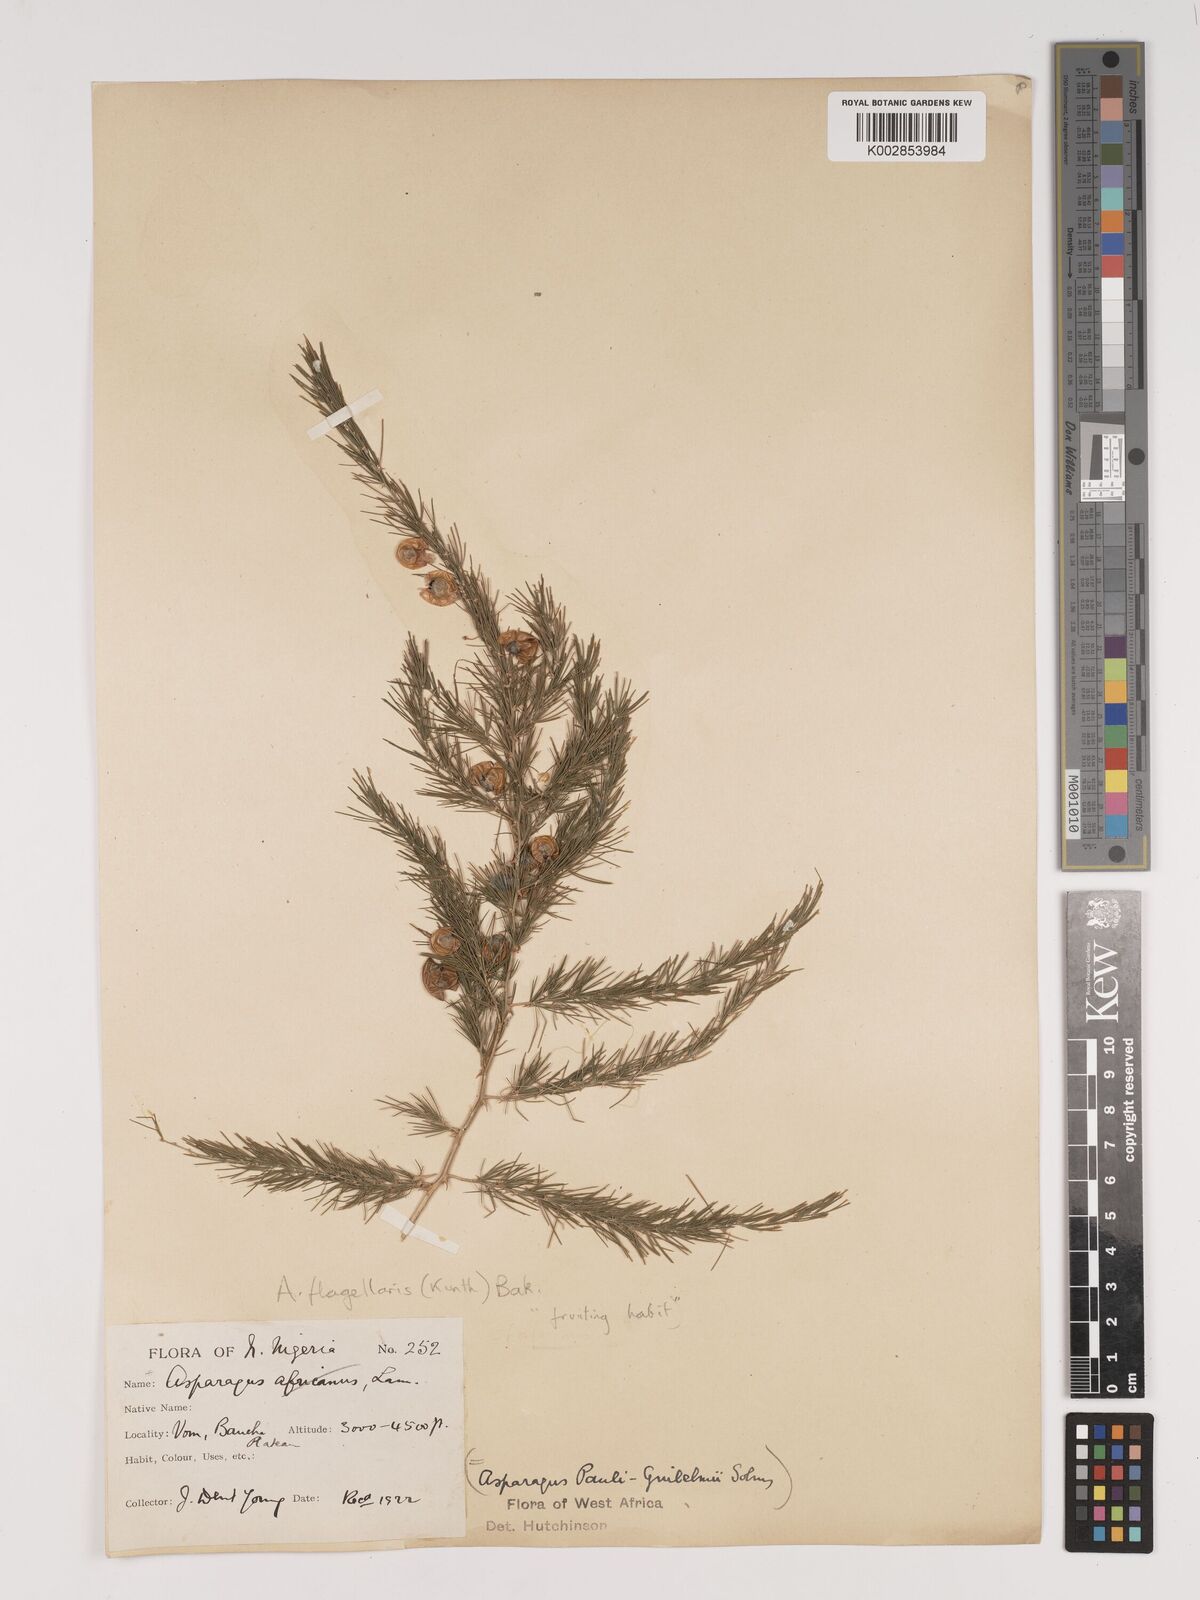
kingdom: Plantae
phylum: Tracheophyta
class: Liliopsida
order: Asparagales
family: Asparagaceae
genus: Asparagus
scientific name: Asparagus
